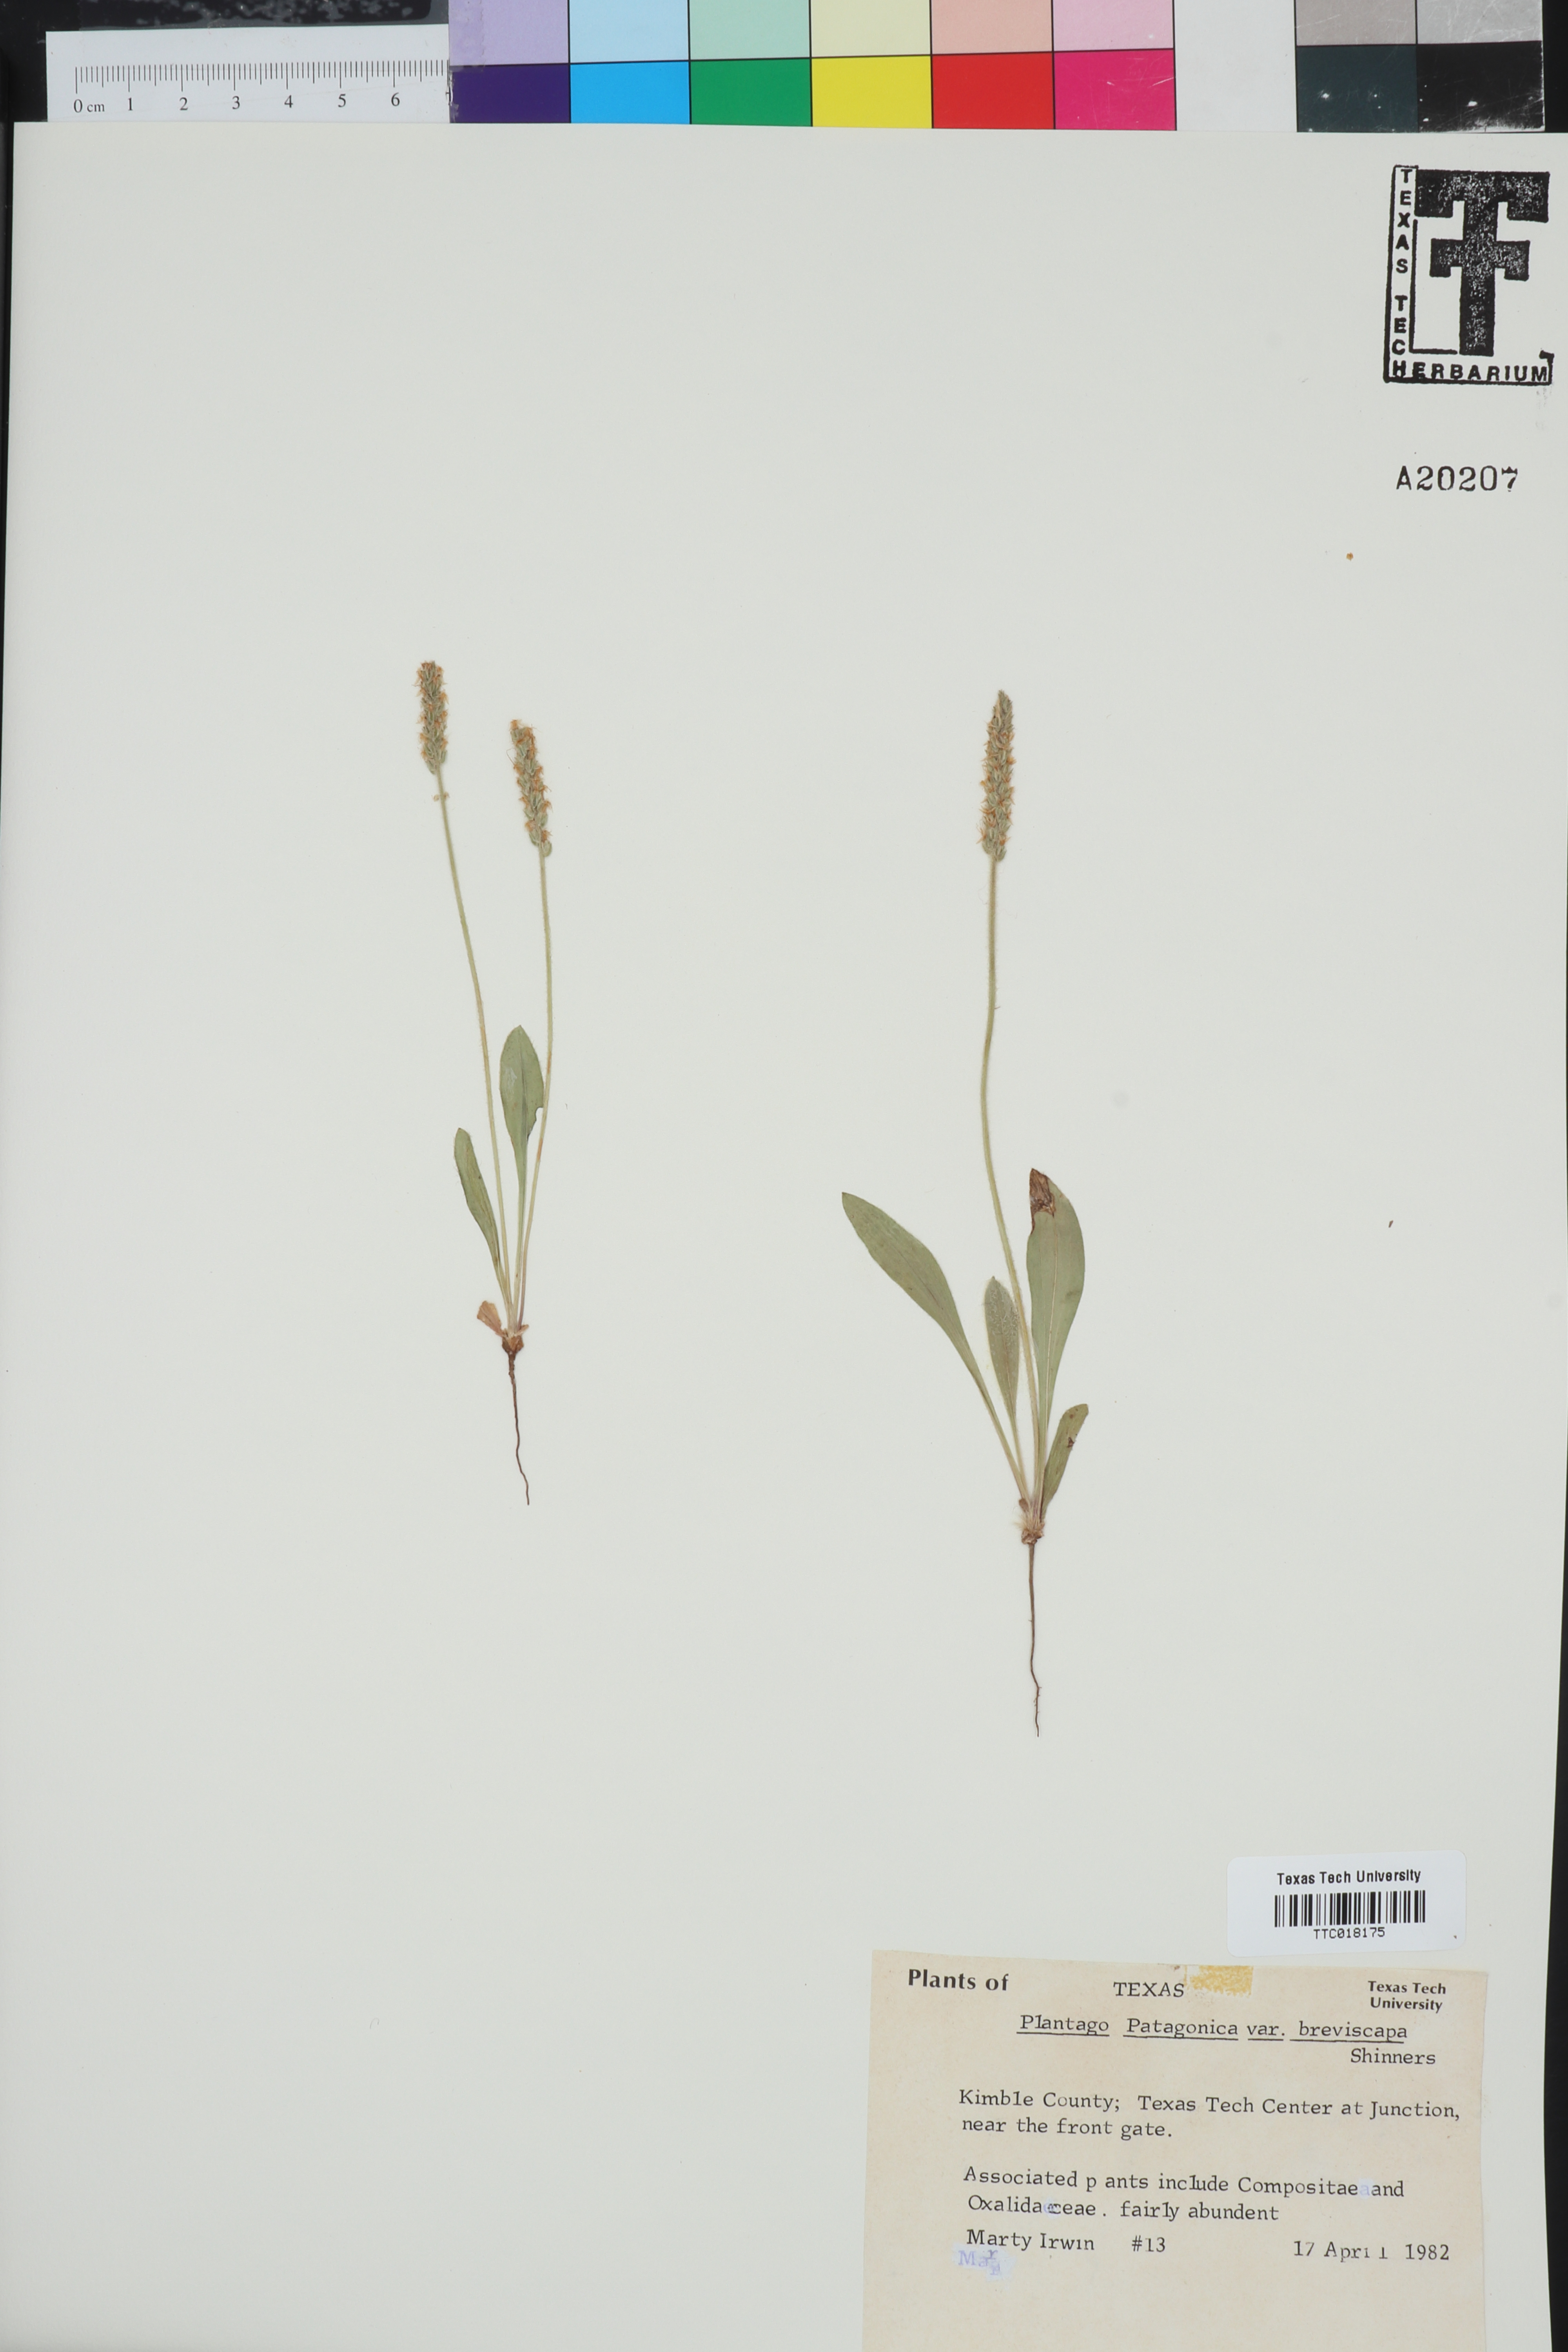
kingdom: Plantae
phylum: Tracheophyta
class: Magnoliopsida
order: Lamiales
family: Plantaginaceae
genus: Plantago
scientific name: Plantago patagonica
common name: Patagonia indian-wheat
